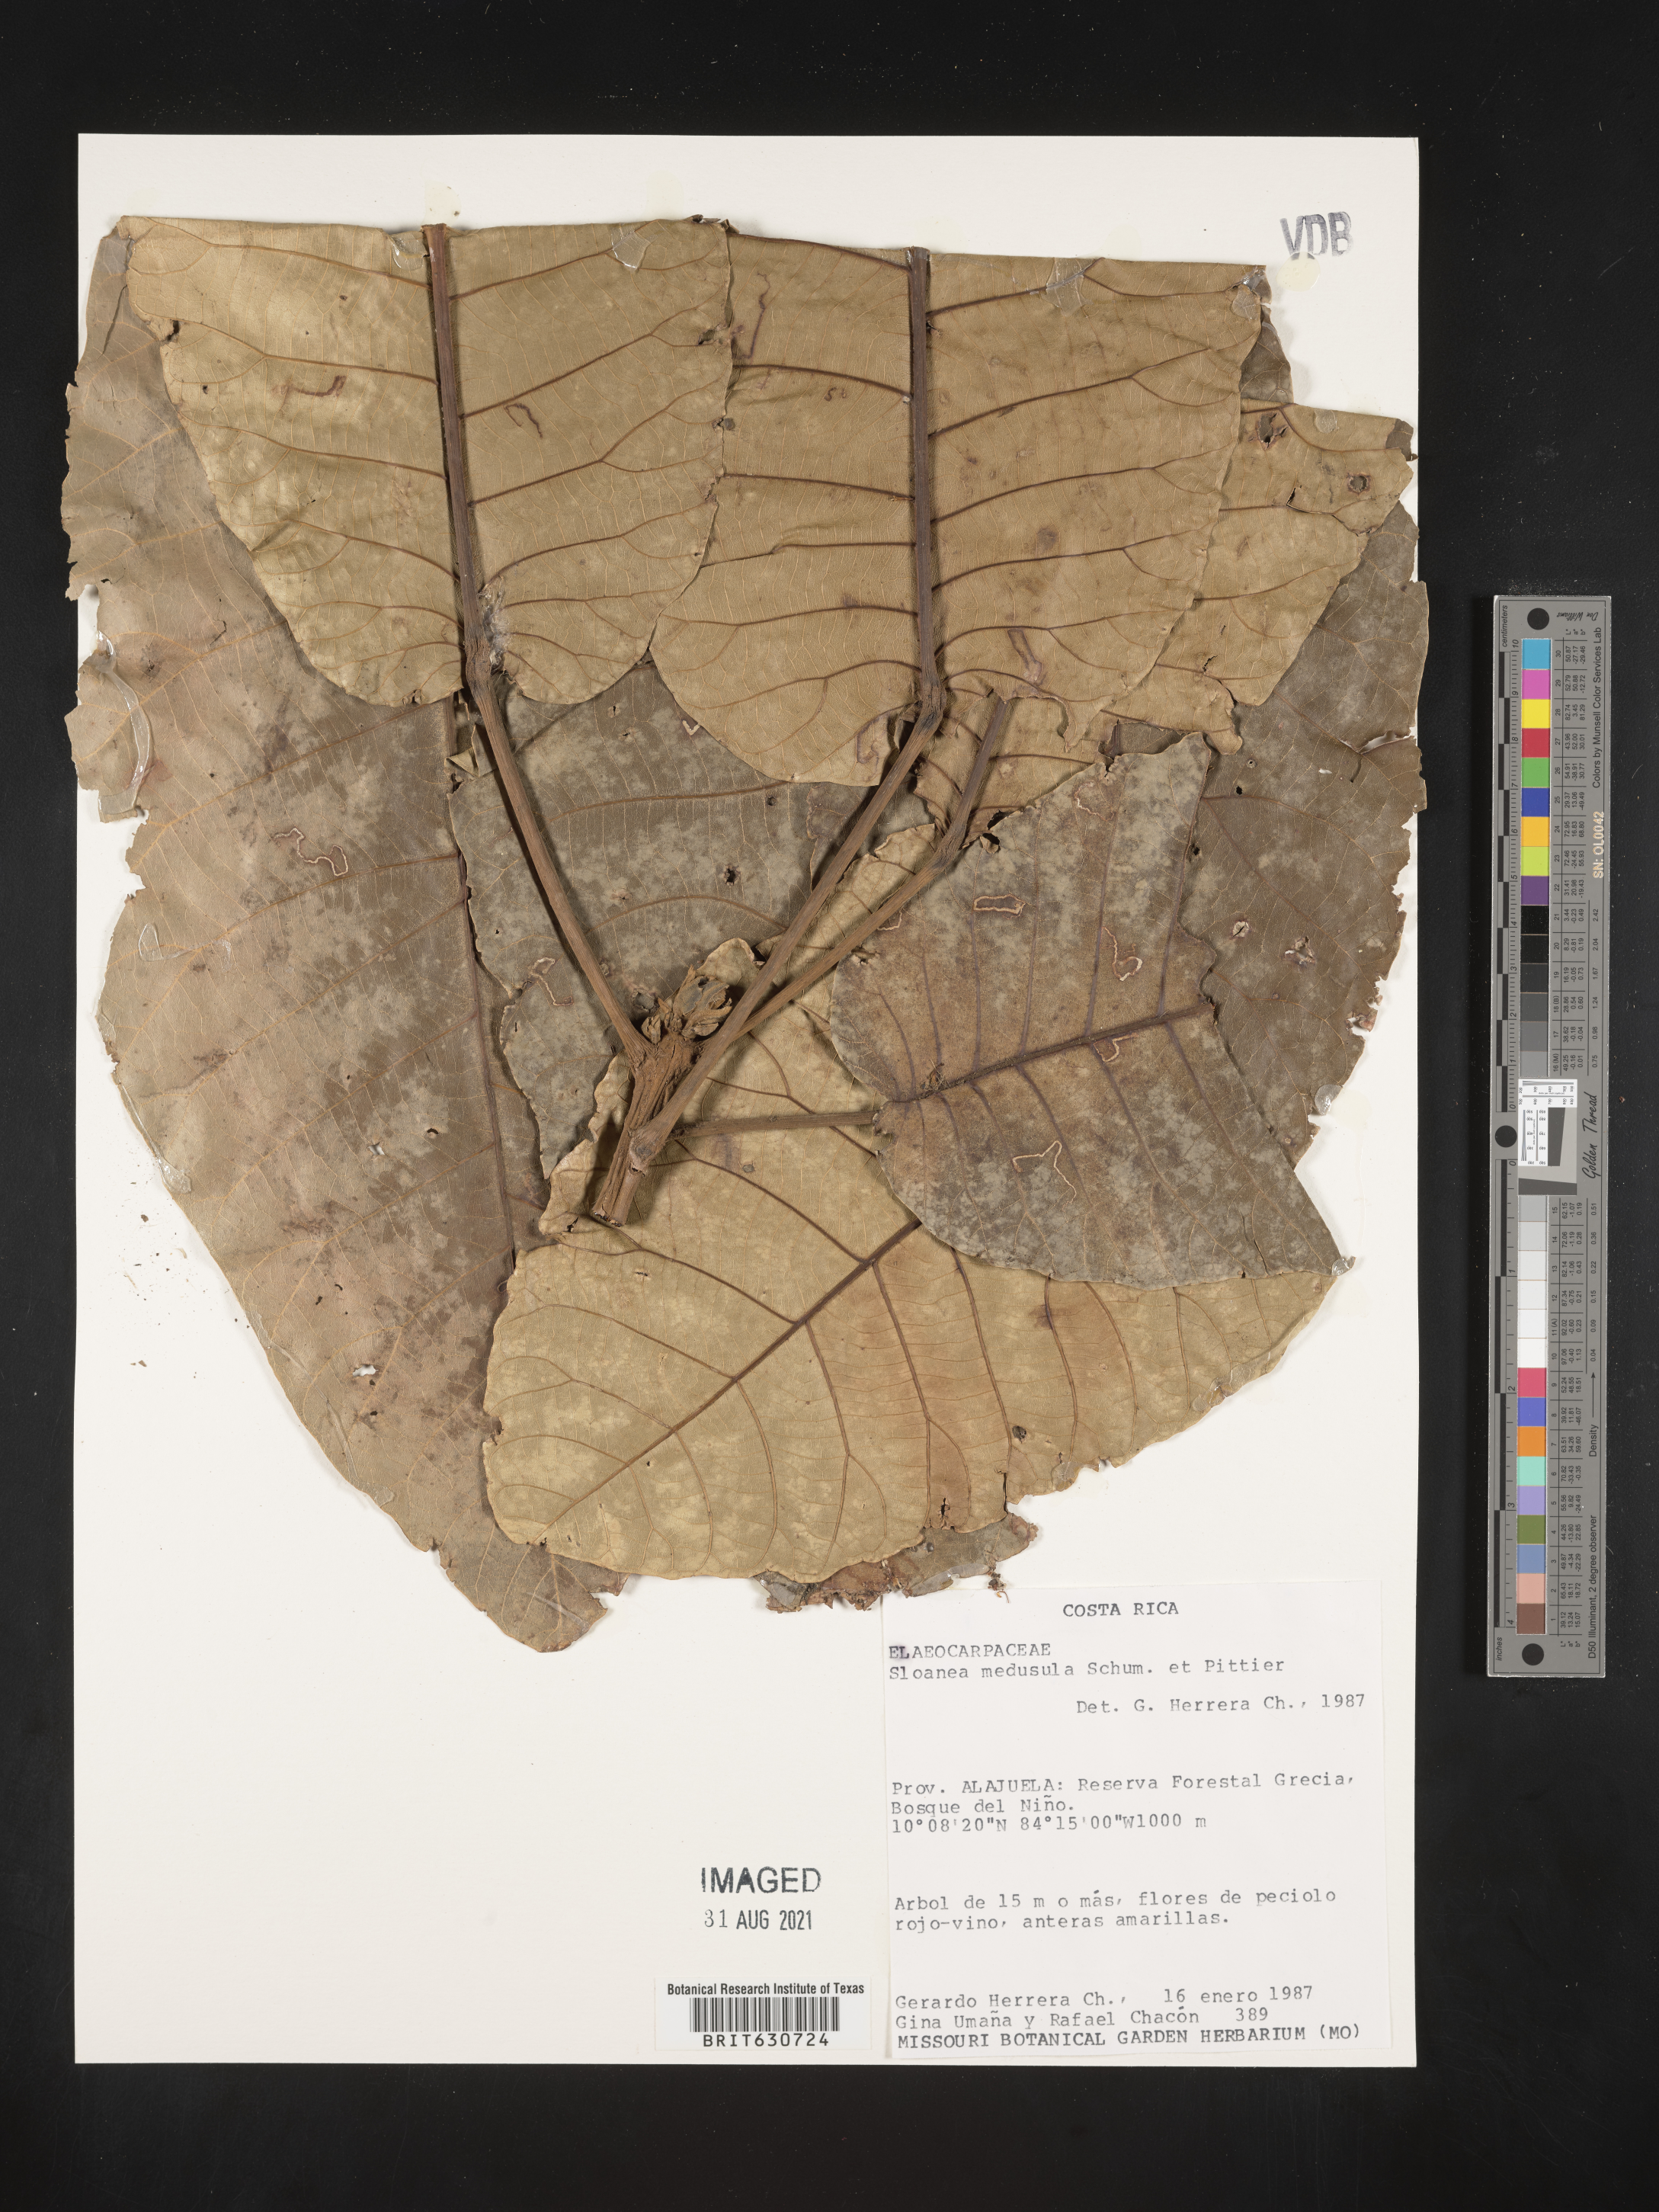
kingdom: Plantae
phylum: Tracheophyta
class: Magnoliopsida
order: Oxalidales
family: Elaeocarpaceae
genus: Sloanea
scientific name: Sloanea
